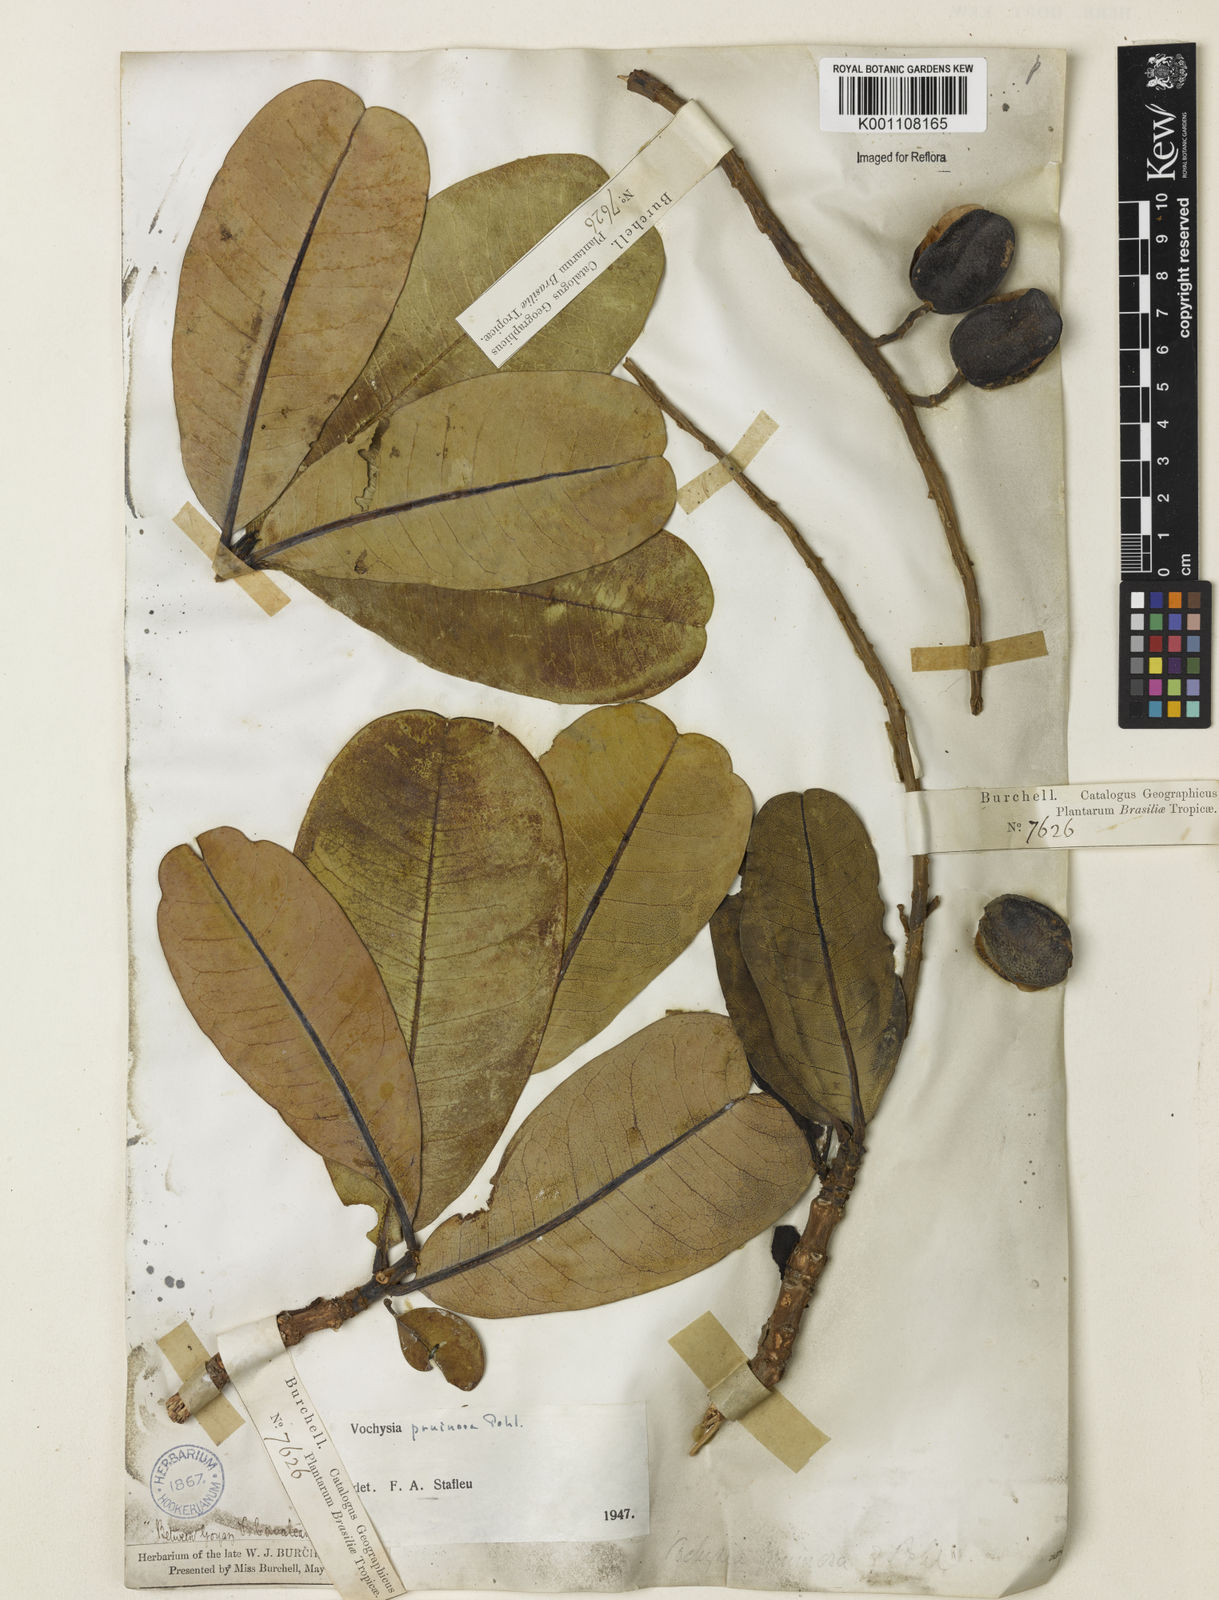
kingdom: Plantae
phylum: Tracheophyta
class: Magnoliopsida
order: Myrtales
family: Vochysiaceae
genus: Vochysia
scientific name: Vochysia pruinosa
